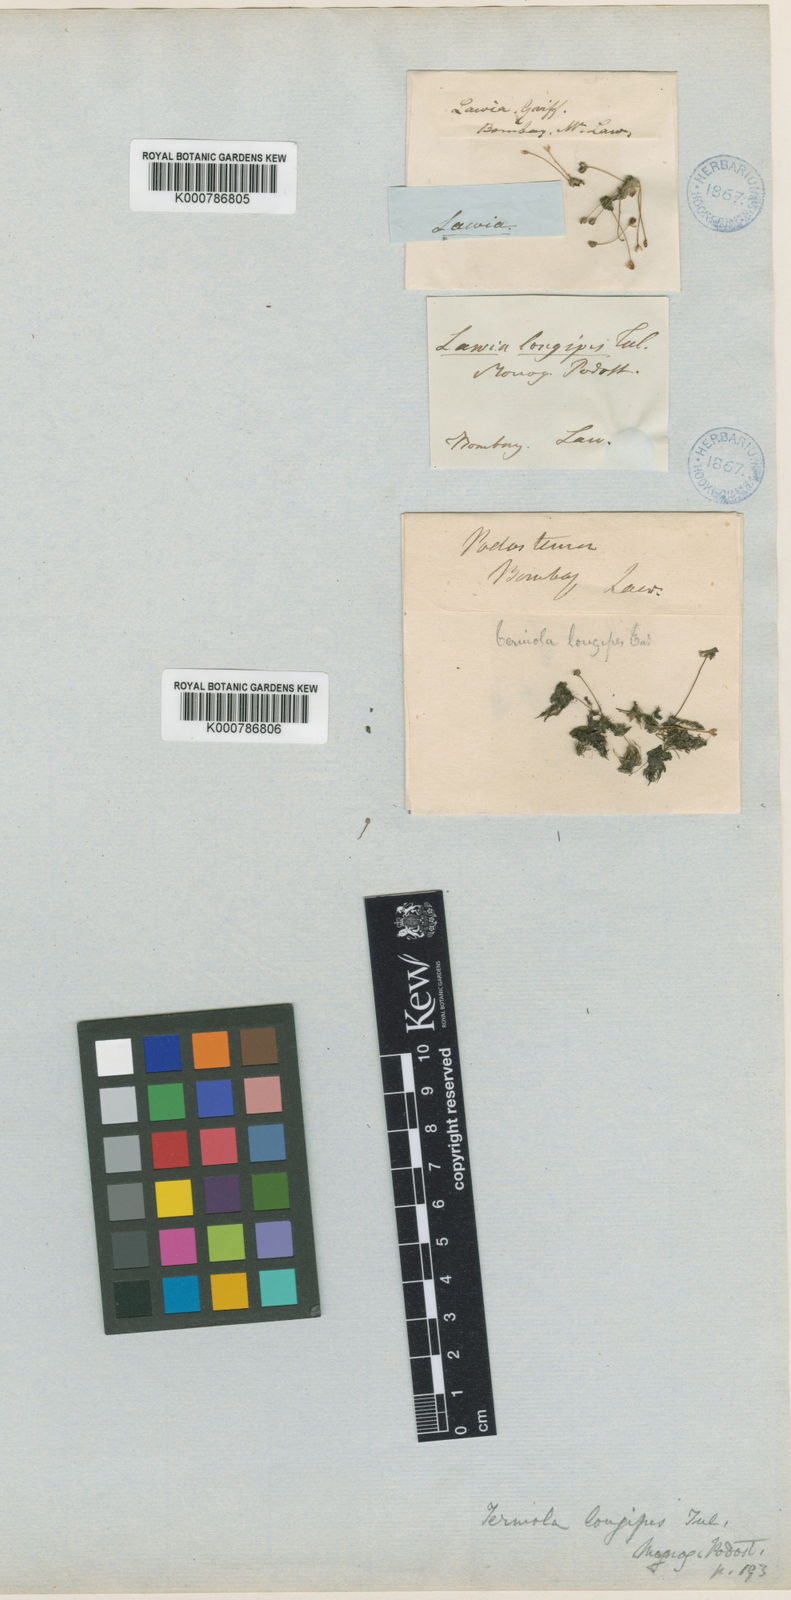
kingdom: Plantae
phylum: Tracheophyta
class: Magnoliopsida
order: Malpighiales
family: Podostemaceae
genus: Dalzellia
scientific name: Dalzellia ceylanica
